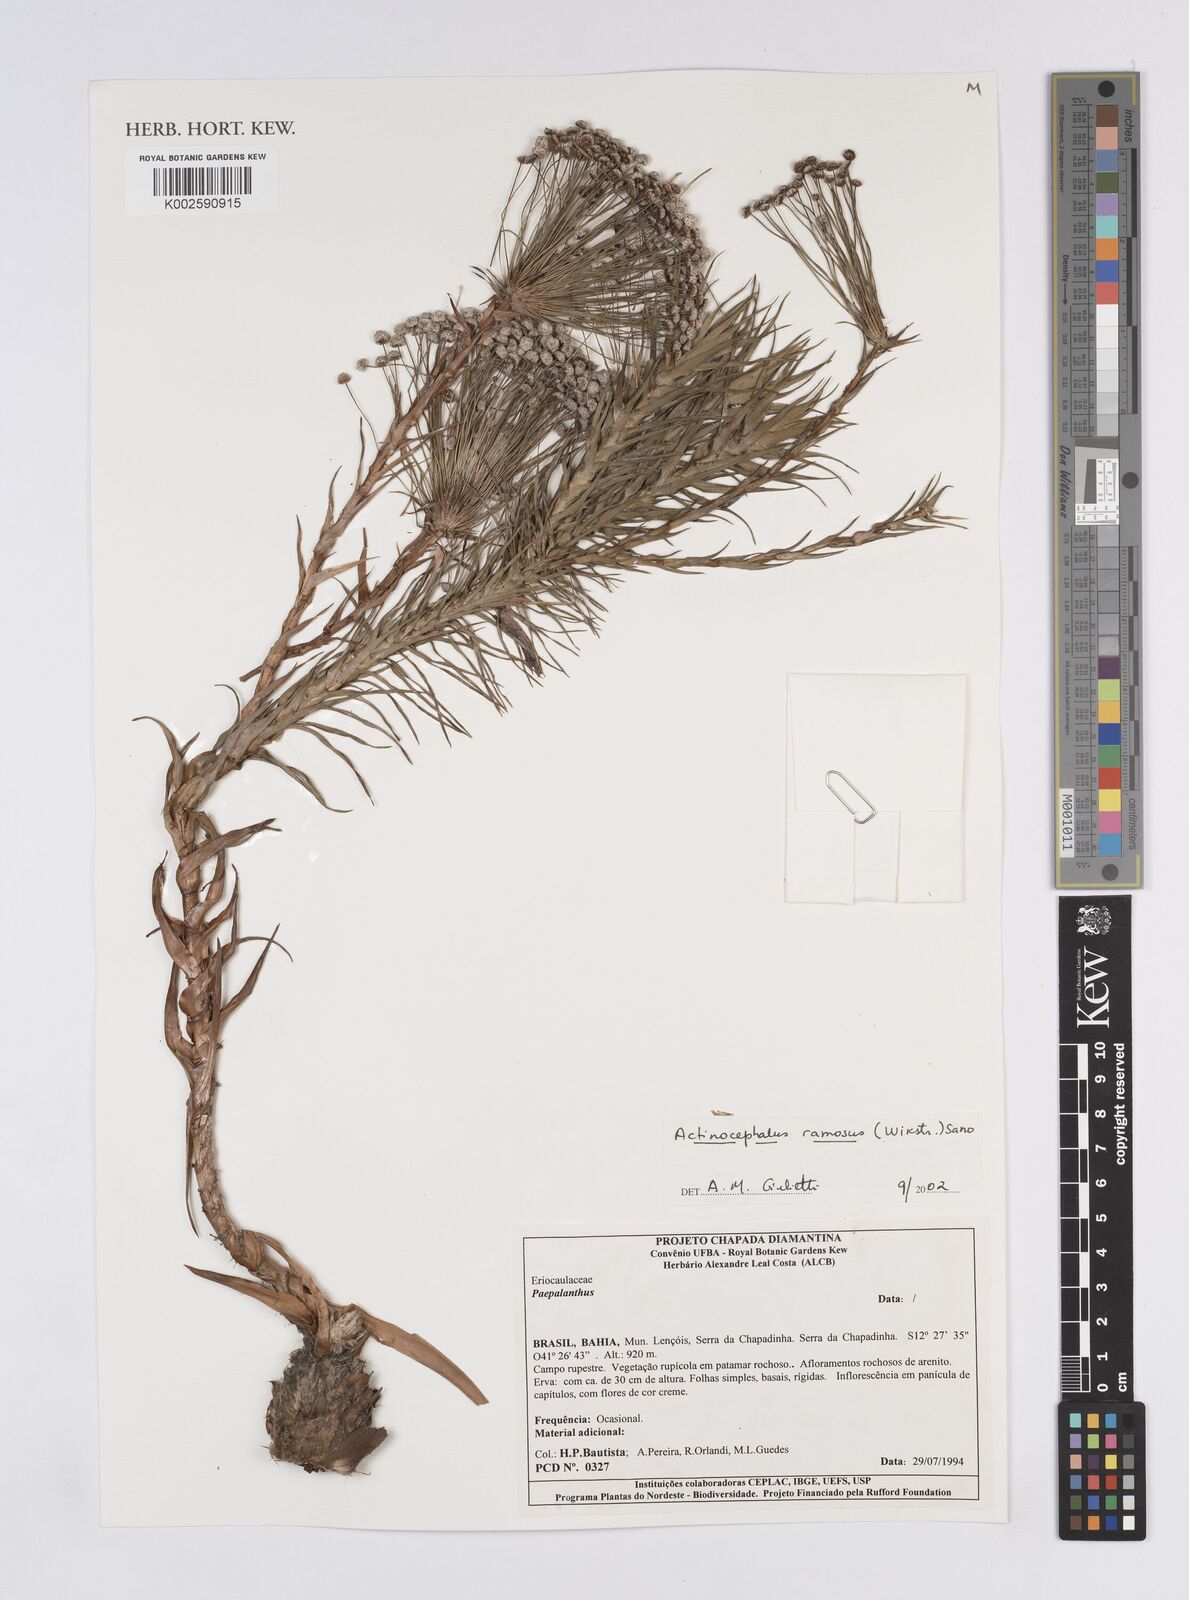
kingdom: Plantae
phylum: Tracheophyta
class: Liliopsida
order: Poales
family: Eriocaulaceae
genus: Paepalanthus
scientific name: Paepalanthus ramosus
